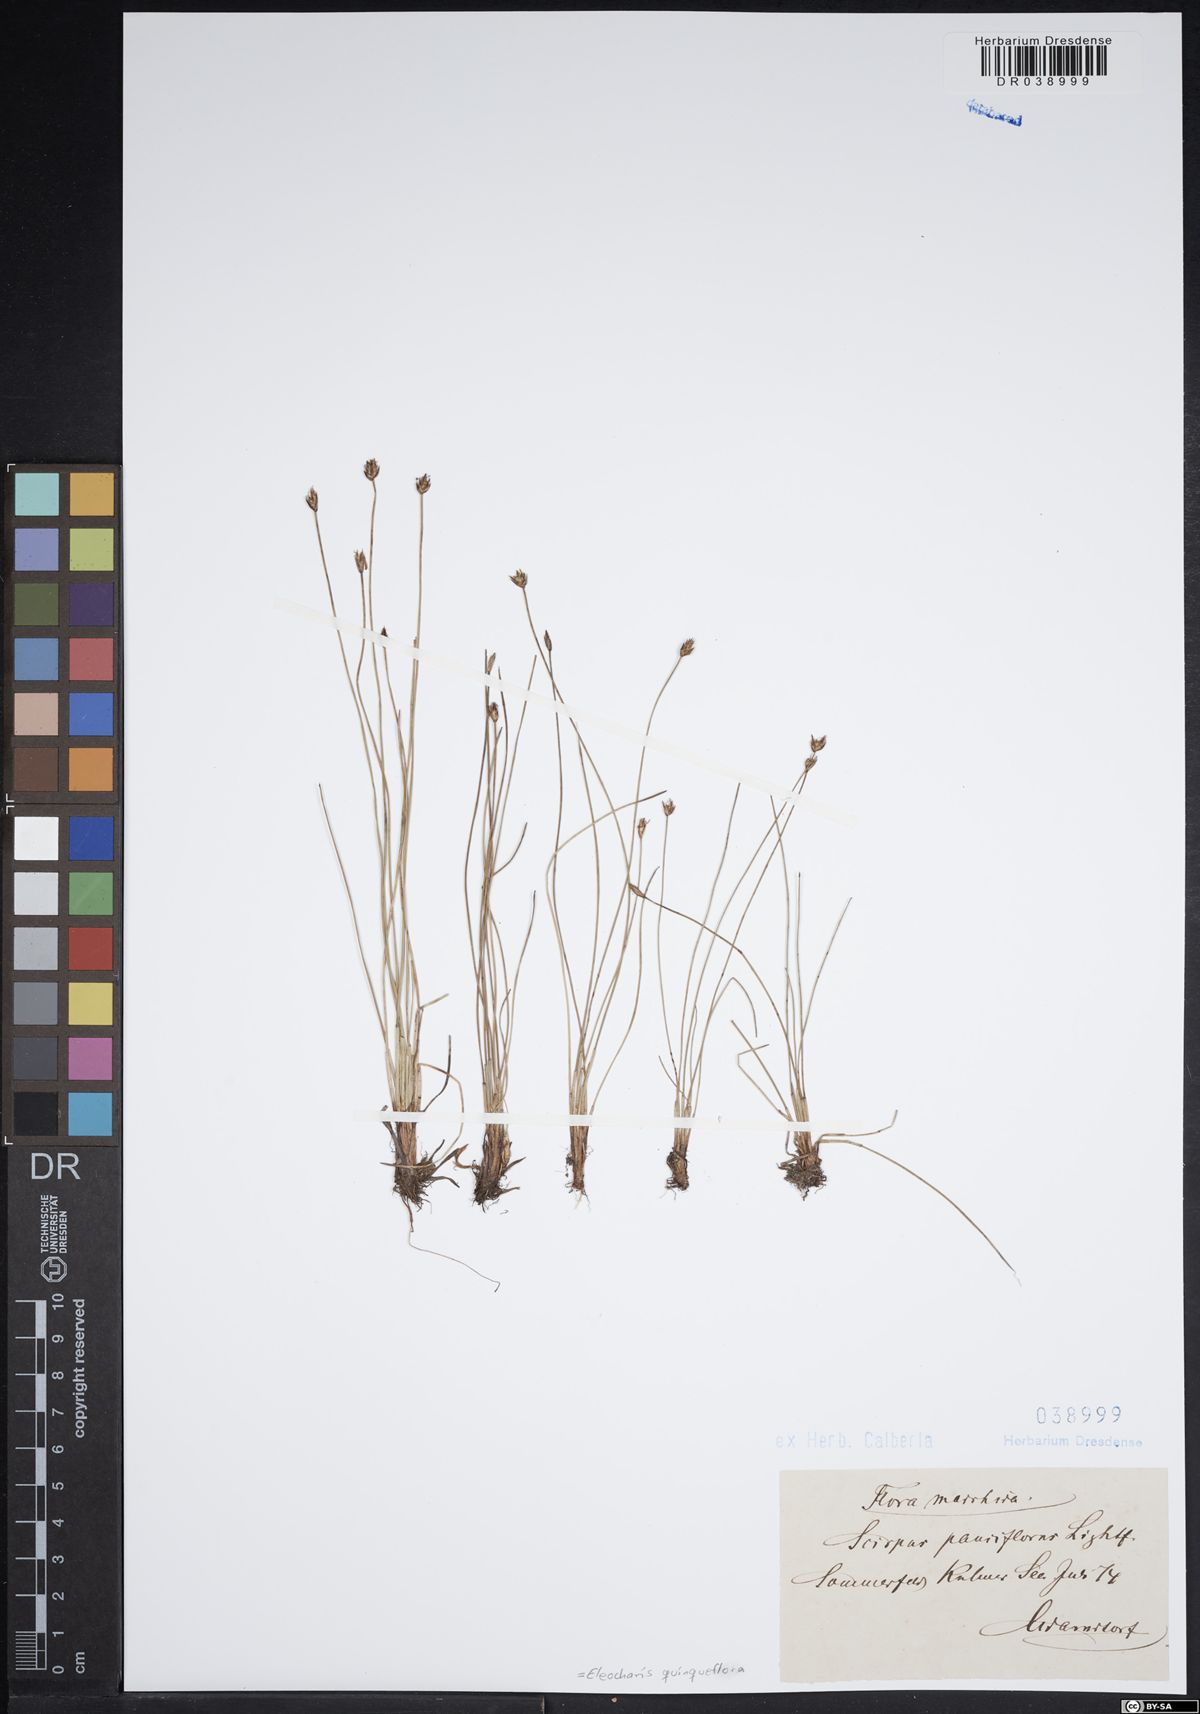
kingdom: Plantae
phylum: Tracheophyta
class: Liliopsida
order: Poales
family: Cyperaceae
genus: Eleocharis
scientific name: Eleocharis quinqueflora
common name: Few-flowered spike-rush
